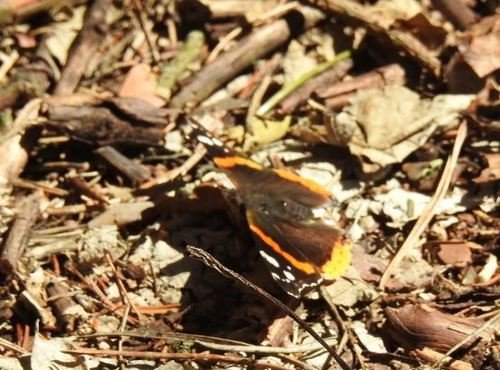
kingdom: Animalia
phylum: Arthropoda
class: Insecta
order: Lepidoptera
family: Nymphalidae
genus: Vanessa
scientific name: Vanessa atalanta
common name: Red Admiral
